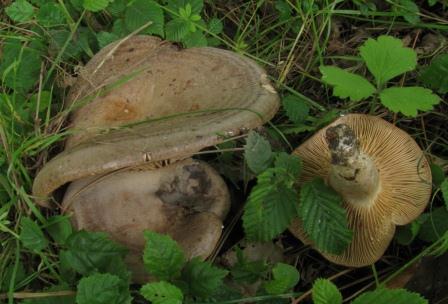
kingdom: Fungi
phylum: Basidiomycota
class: Agaricomycetes
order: Russulales
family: Russulaceae
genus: Lactarius
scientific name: Lactarius circellatus
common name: avnbøg-mælkehat
